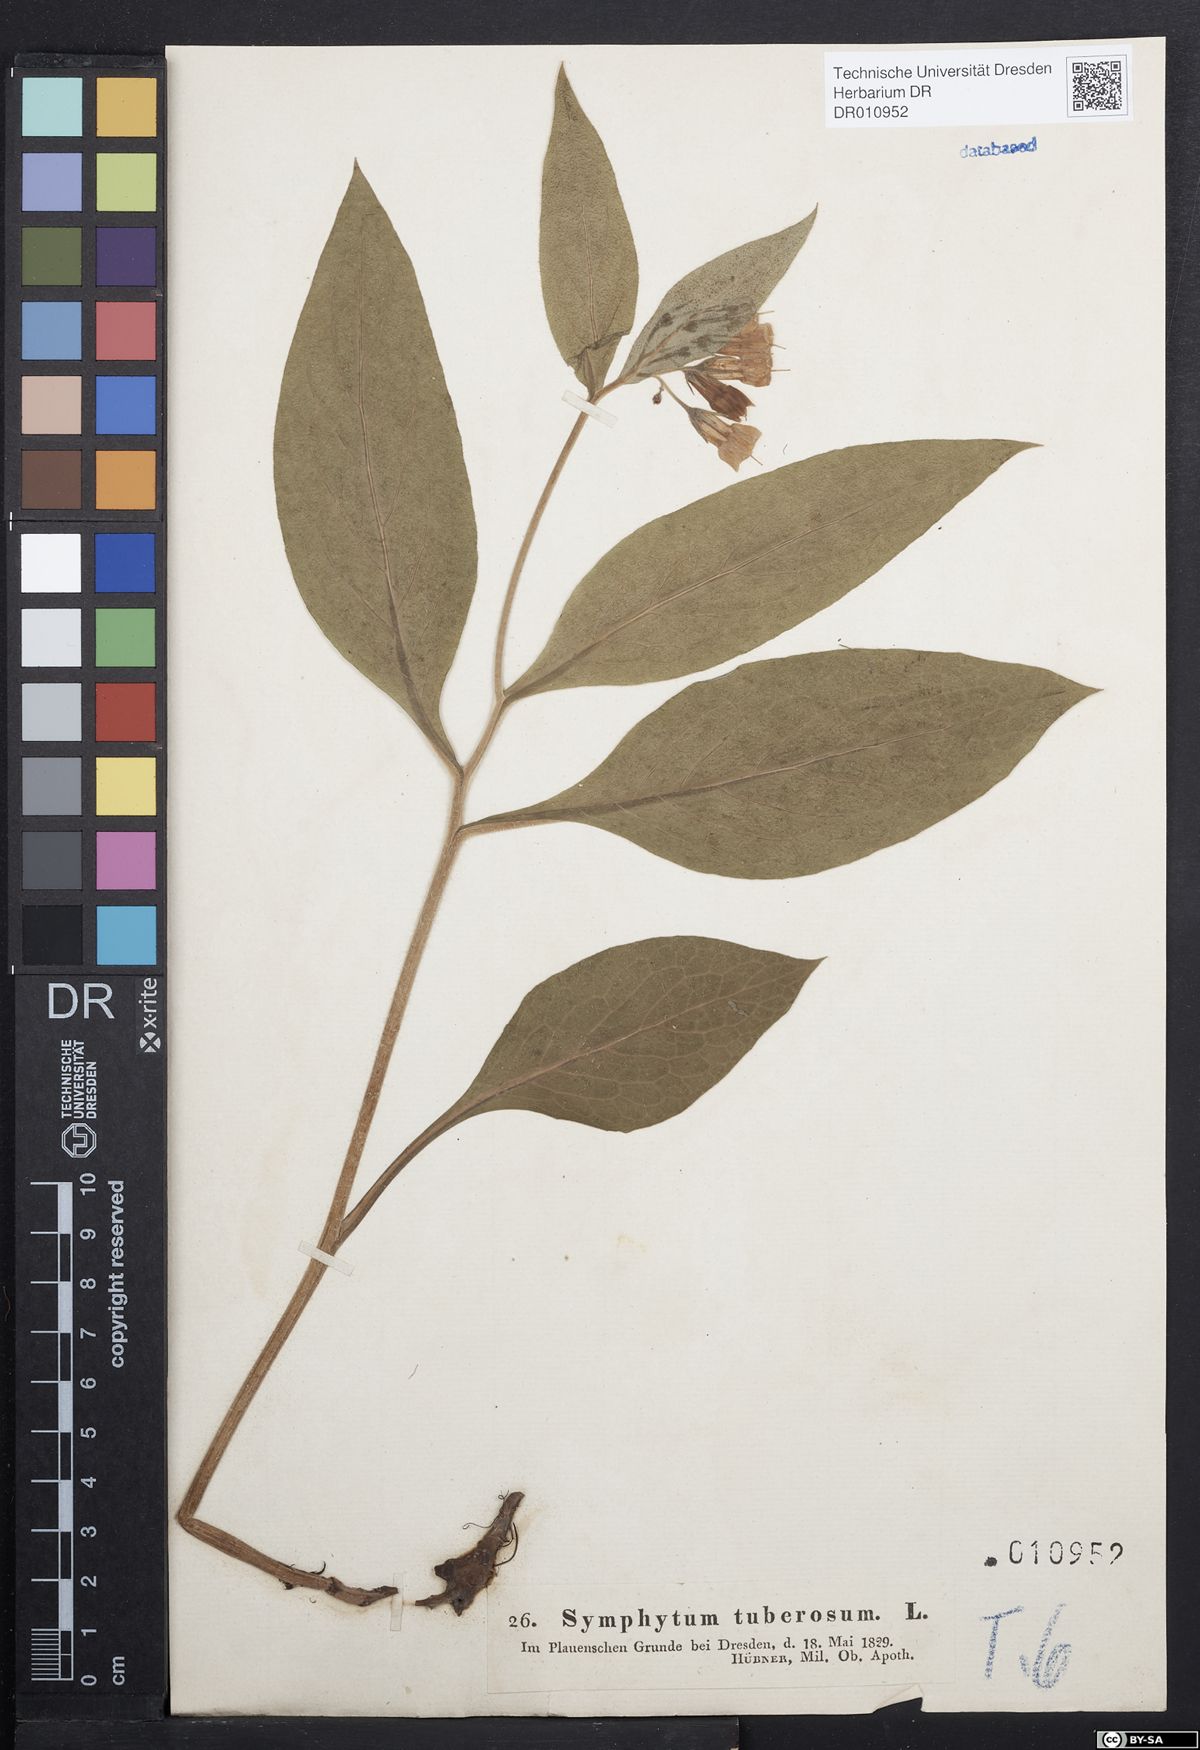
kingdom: Plantae
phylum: Tracheophyta
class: Magnoliopsida
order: Boraginales
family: Boraginaceae
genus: Symphytum
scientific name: Symphytum tuberosum
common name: Tuberous comfrey
